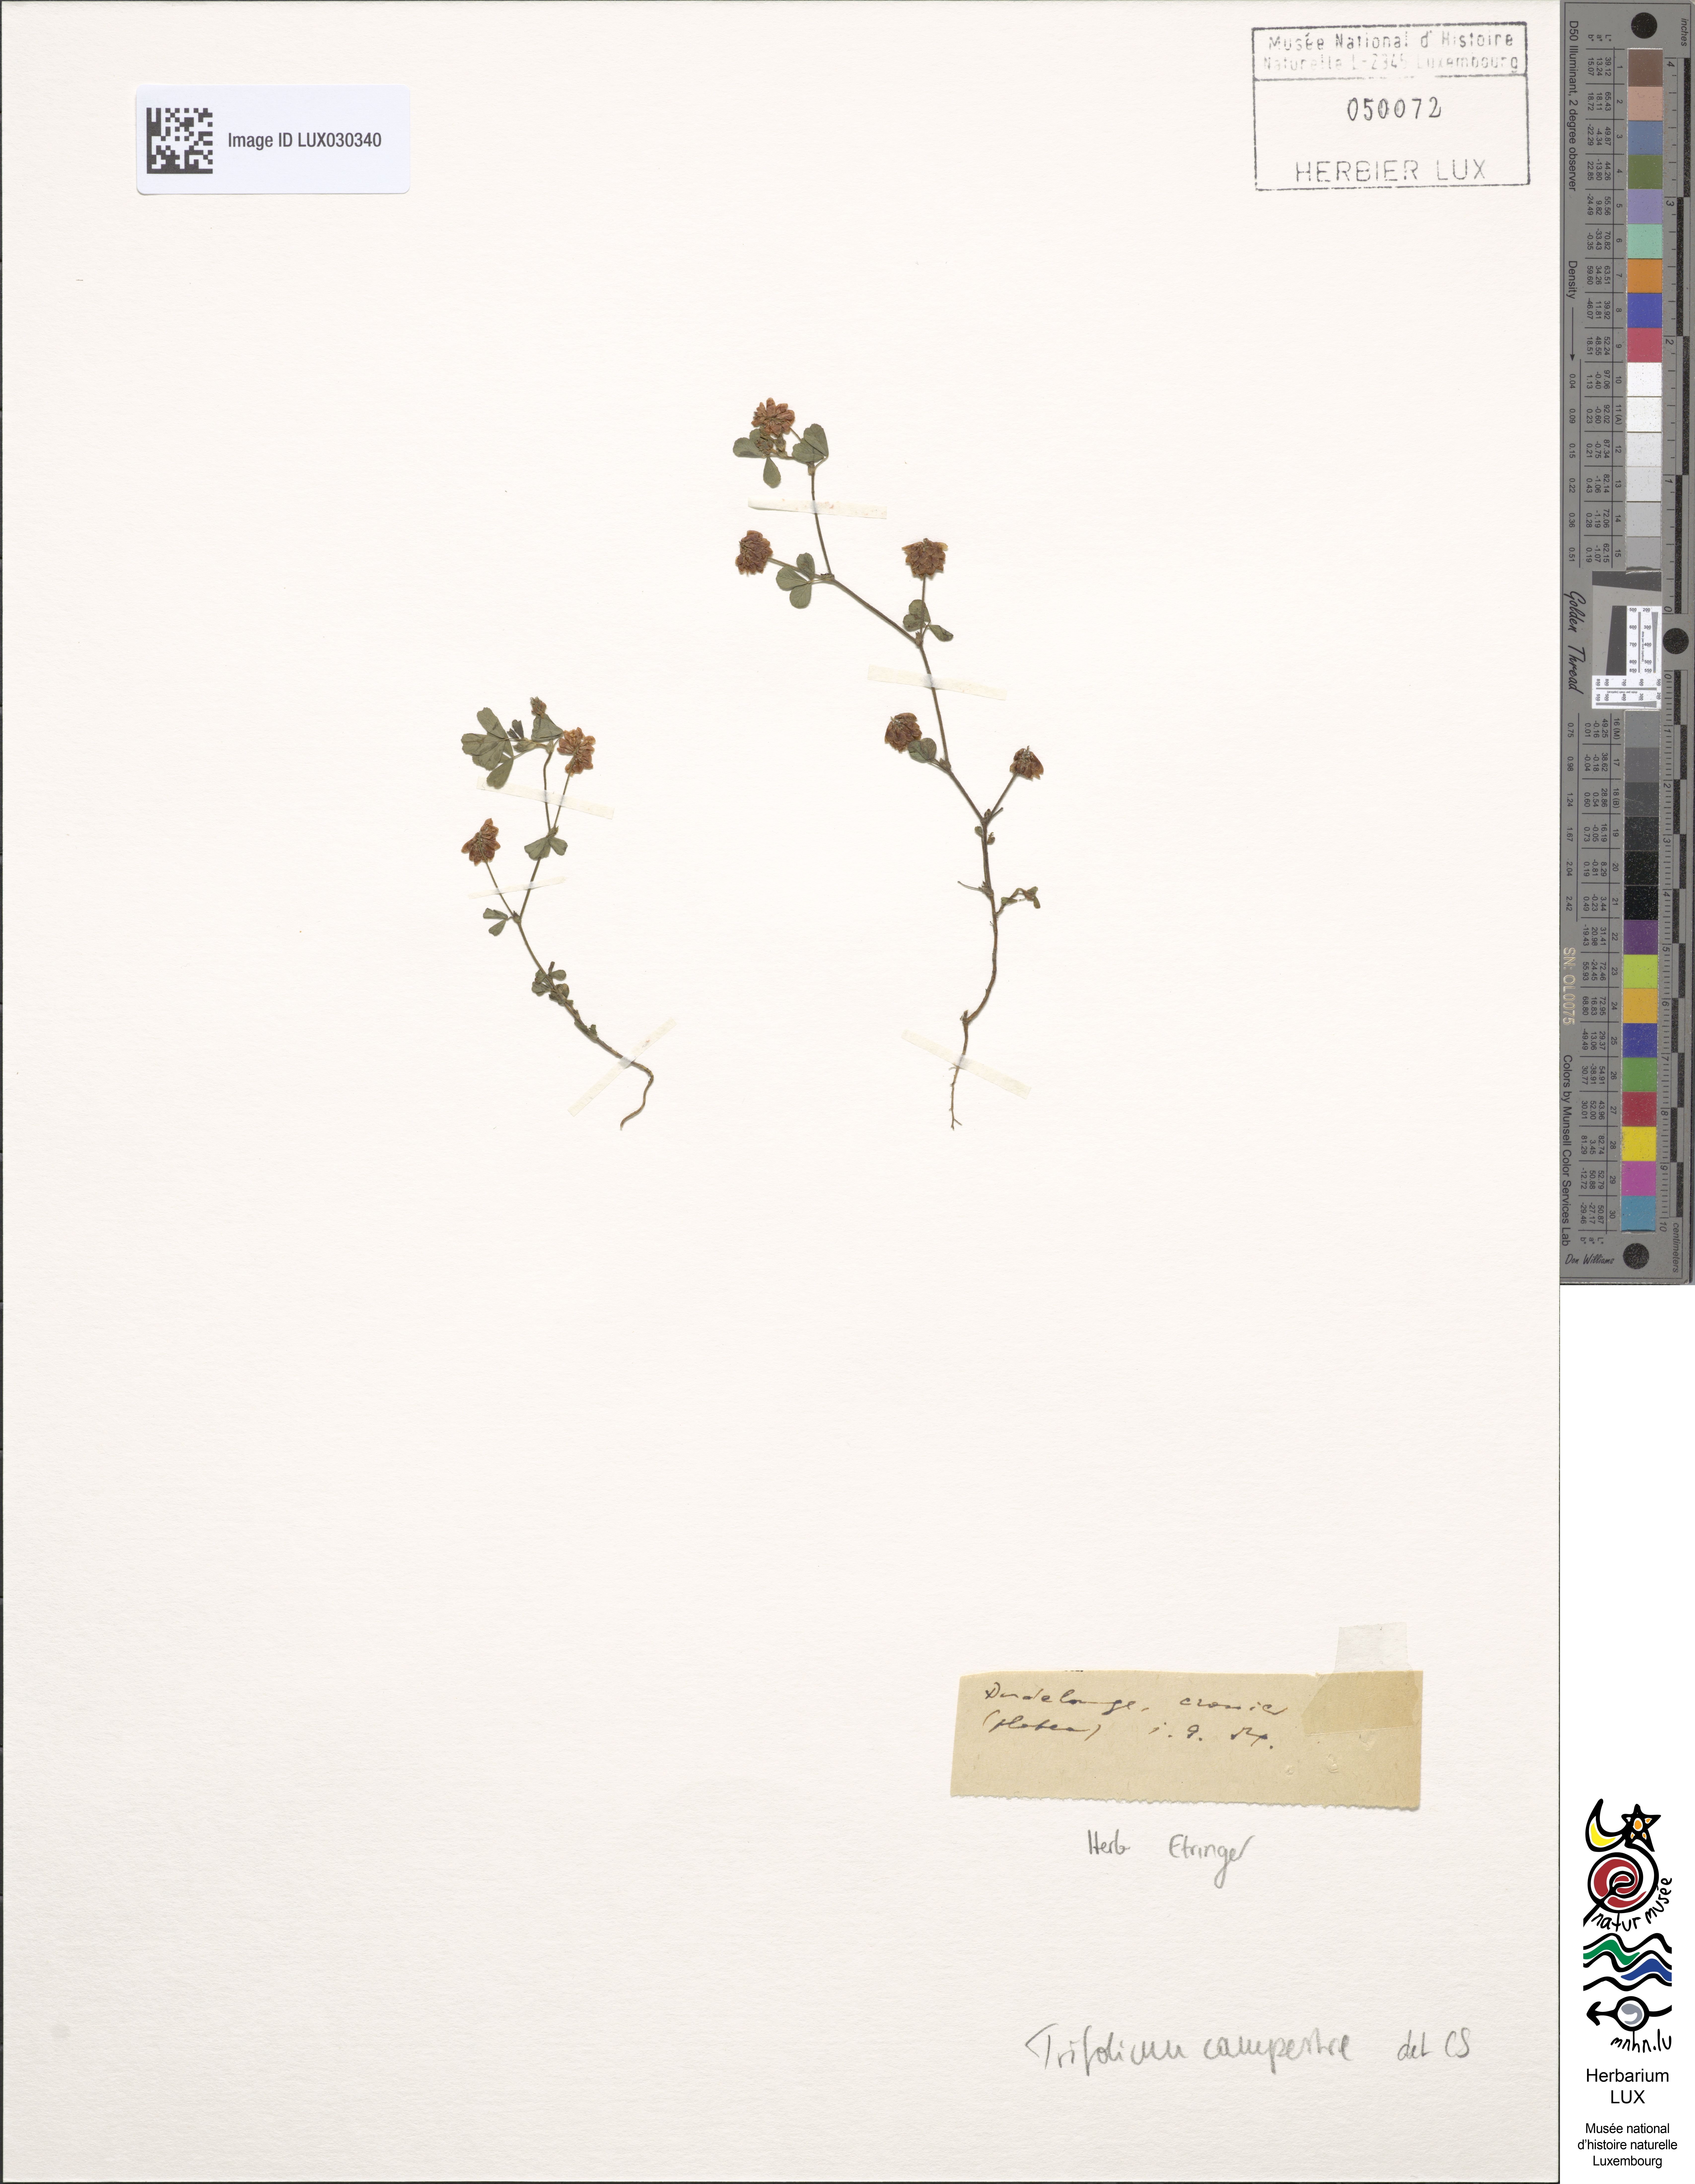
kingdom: Plantae
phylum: Tracheophyta
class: Magnoliopsida
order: Fabales
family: Fabaceae
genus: Trifolium
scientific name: Trifolium campestre
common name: Field clover
